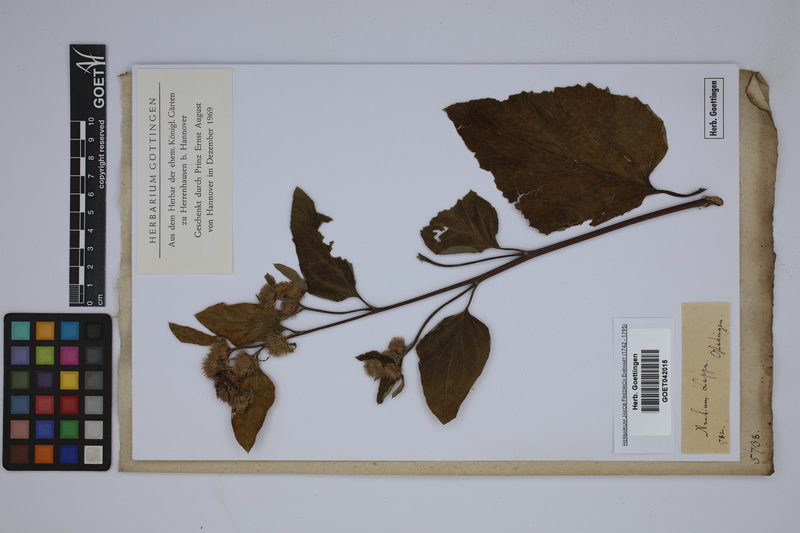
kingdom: Plantae
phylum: Tracheophyta
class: Magnoliopsida
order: Asterales
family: Asteraceae
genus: Arctium
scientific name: Arctium lappa
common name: Greater burdock
